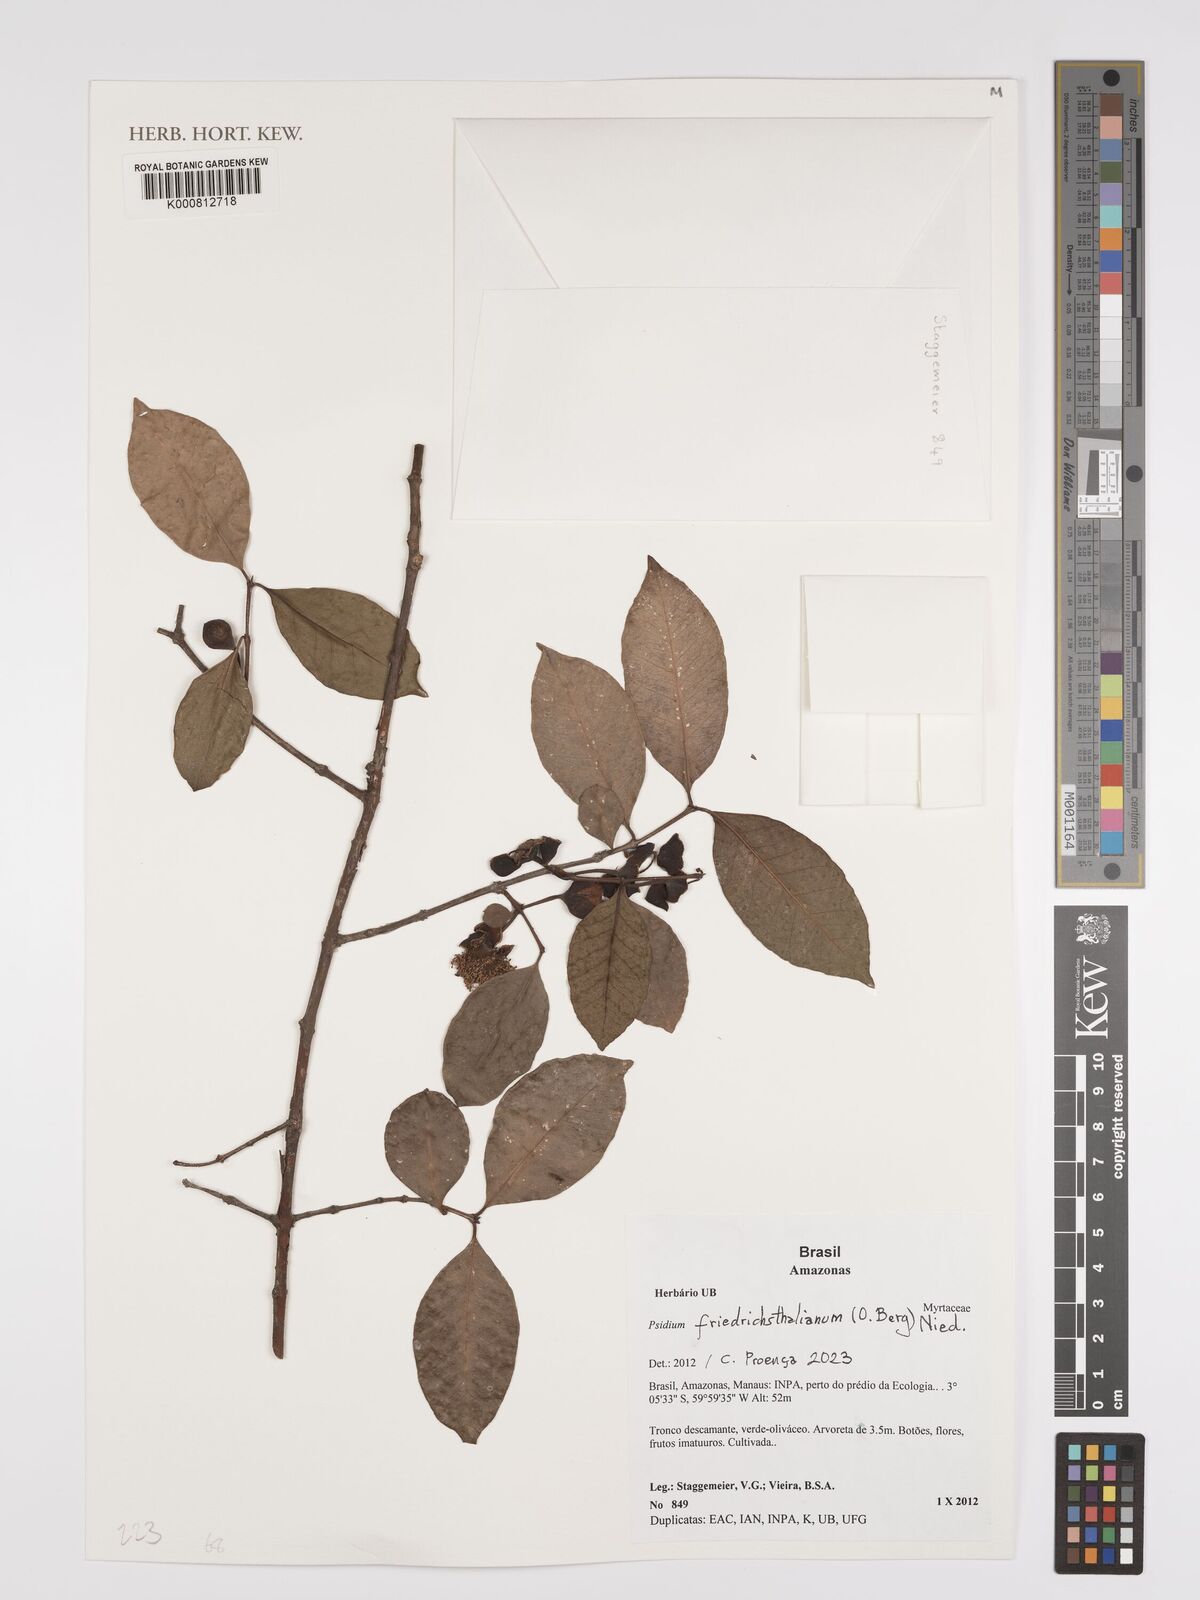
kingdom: Plantae
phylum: Tracheophyta
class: Magnoliopsida
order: Myrtales
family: Myrtaceae
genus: Psidium
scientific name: Psidium
